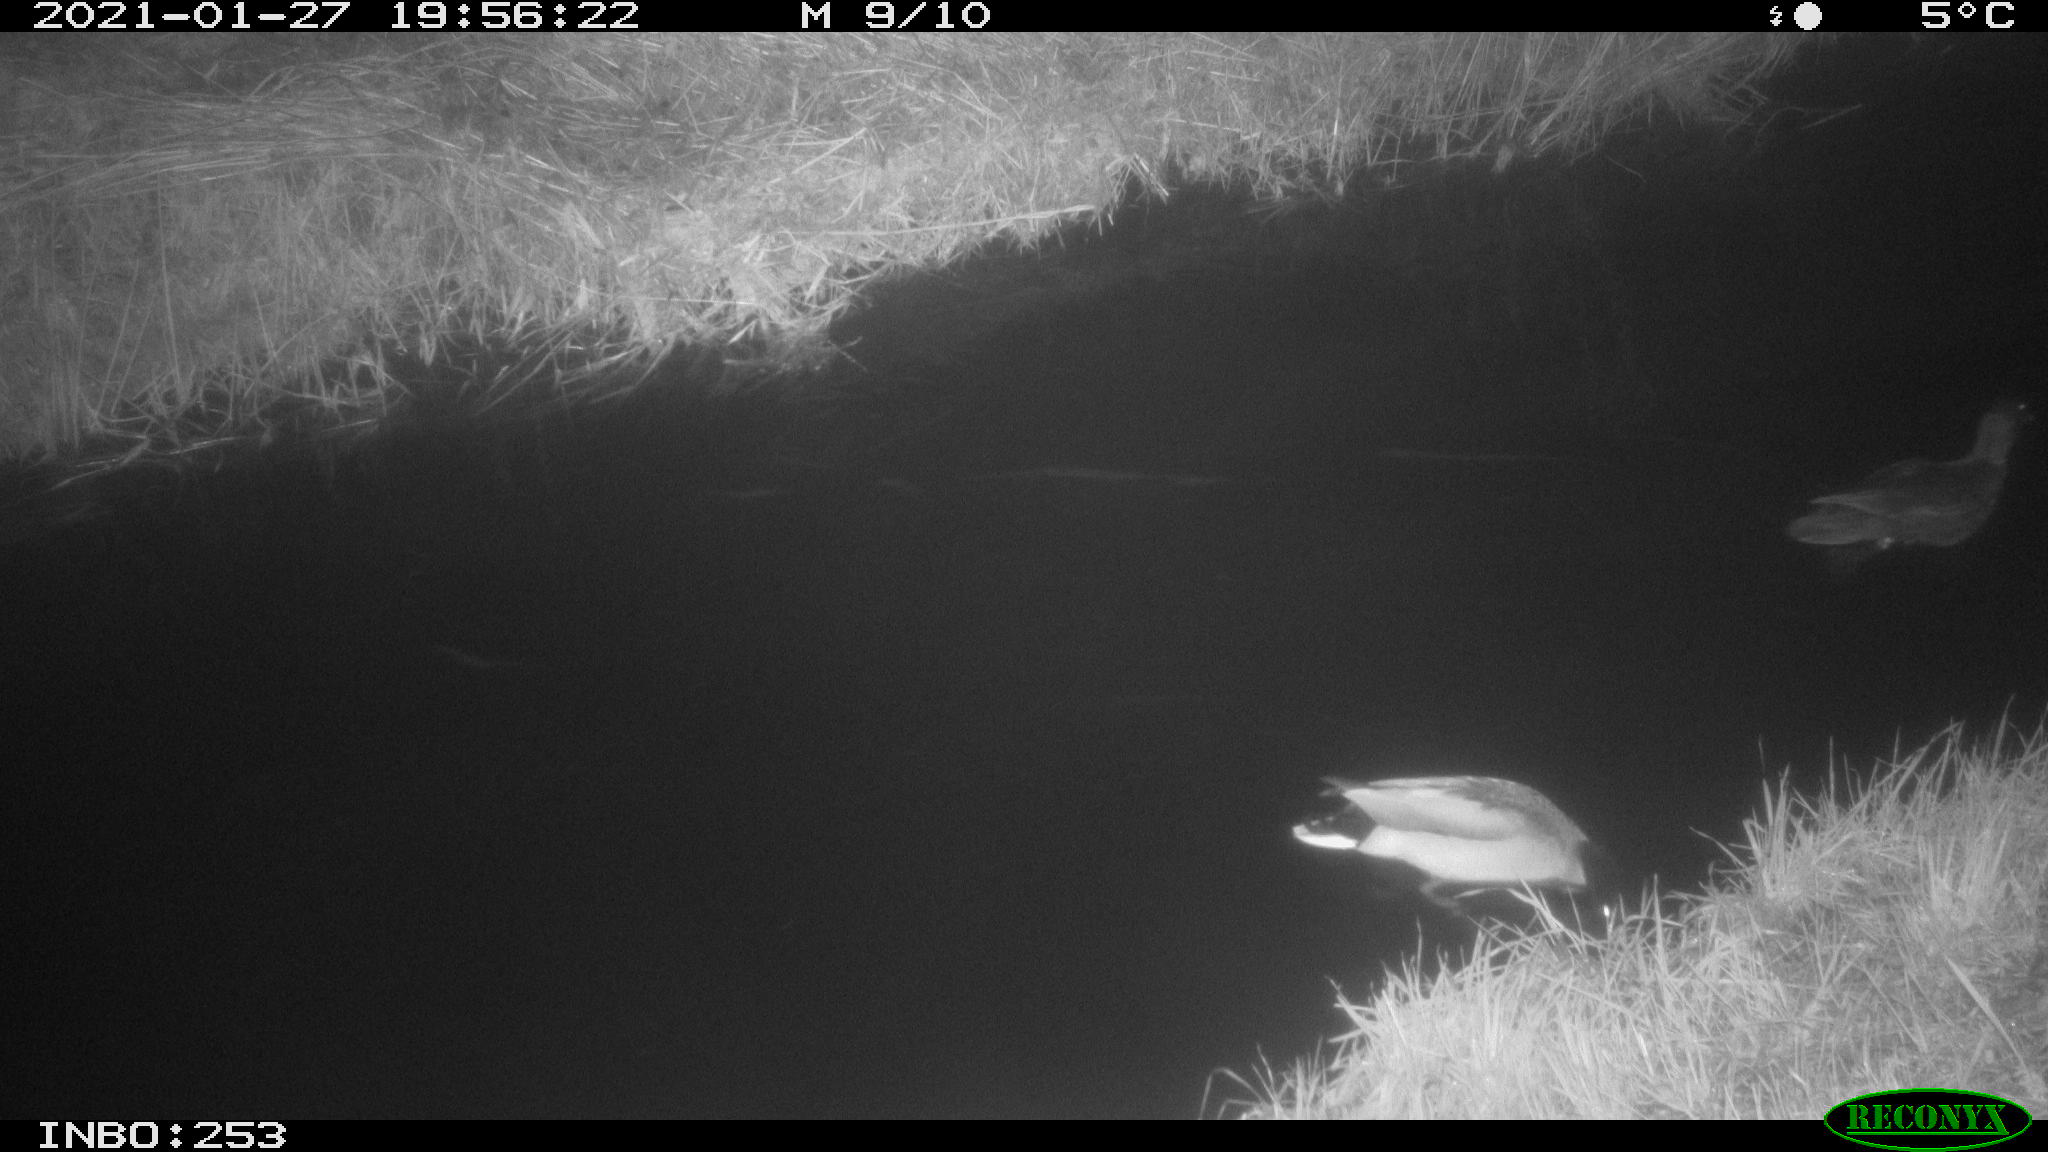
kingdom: Animalia
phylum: Chordata
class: Aves
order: Anseriformes
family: Anatidae
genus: Anas
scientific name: Anas platyrhynchos
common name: Mallard
